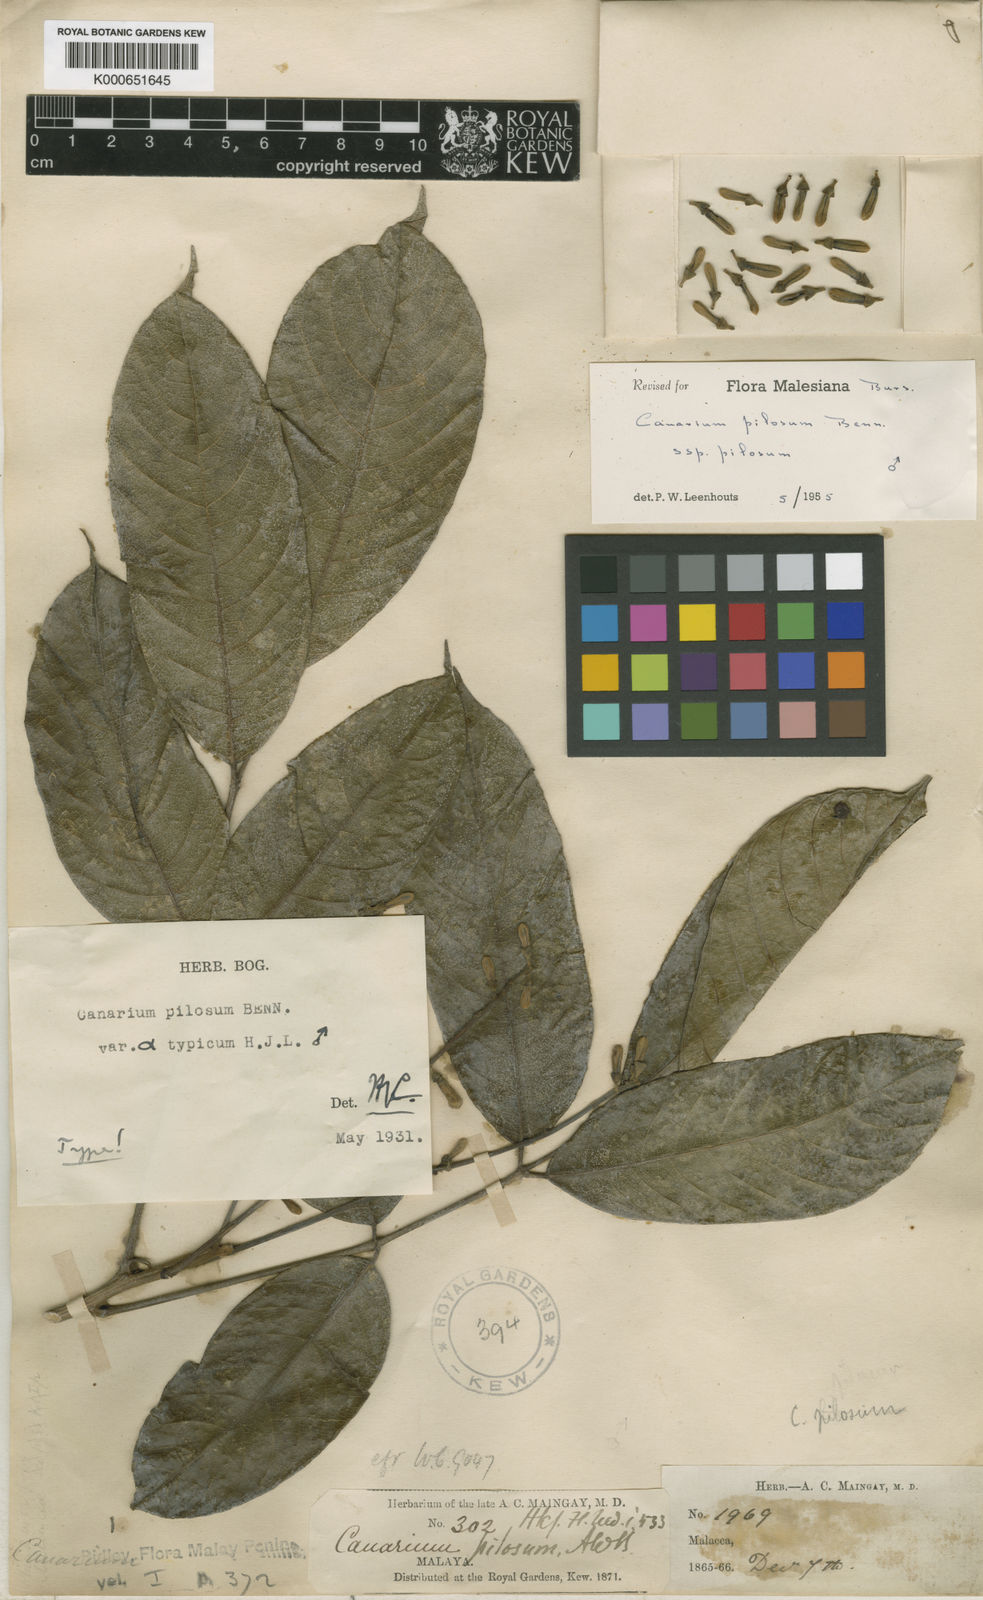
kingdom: Plantae
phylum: Tracheophyta
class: Magnoliopsida
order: Sapindales
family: Burseraceae
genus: Canarium
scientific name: Canarium pilosum
